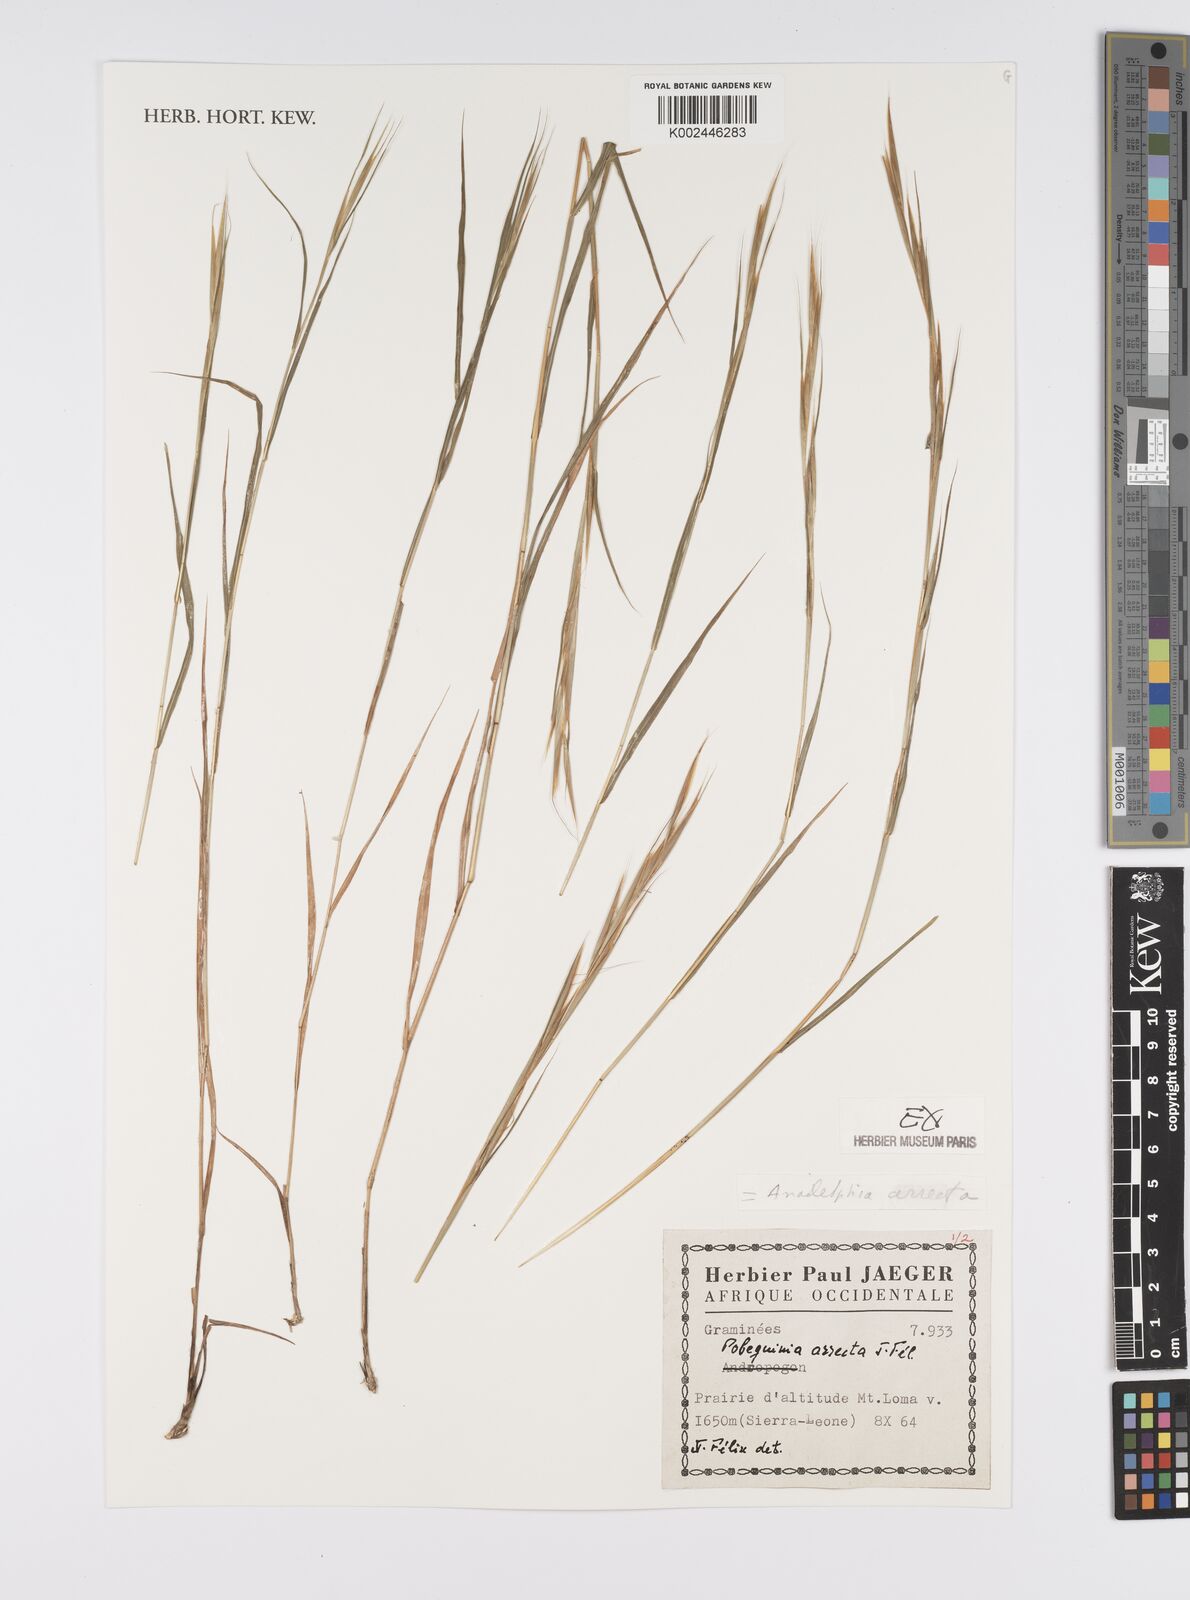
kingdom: Plantae
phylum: Tracheophyta
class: Liliopsida
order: Poales
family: Poaceae
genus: Anadelphia
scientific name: Anadelphia afzeliana
